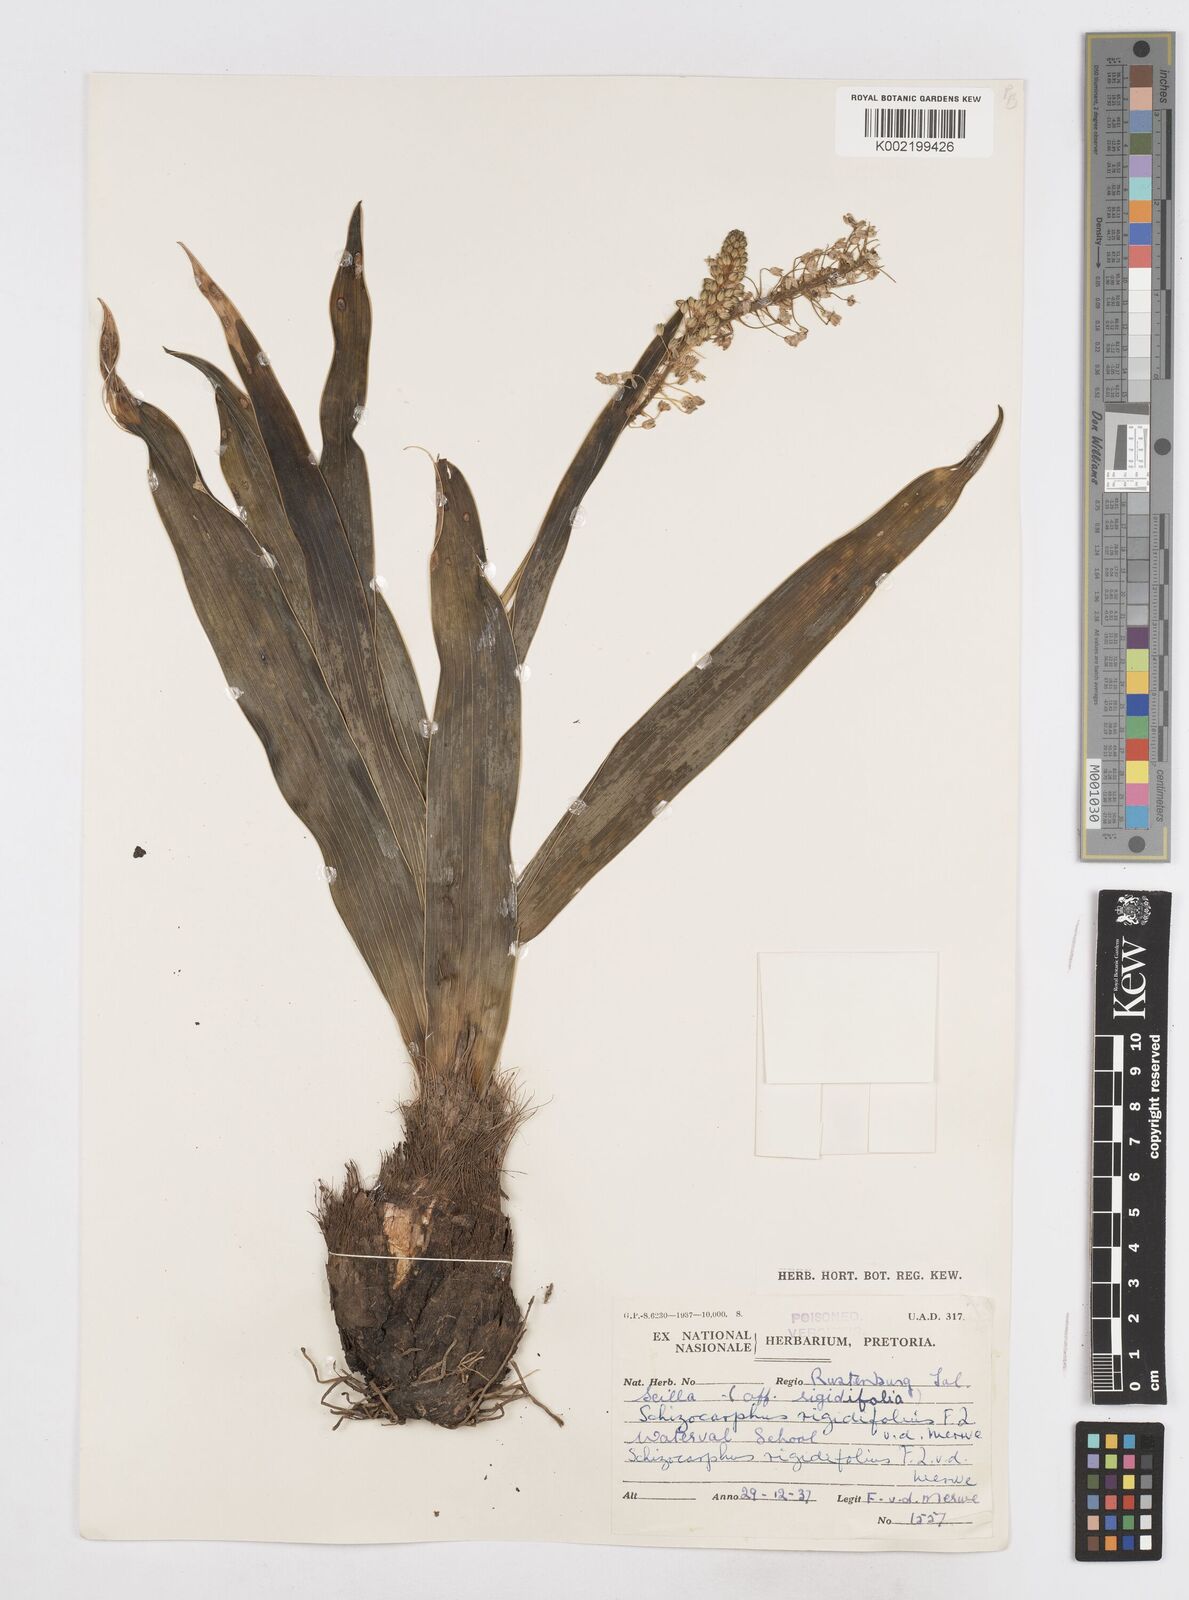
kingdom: Plantae
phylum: Tracheophyta
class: Liliopsida
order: Asparagales
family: Asparagaceae
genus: Schizocarphus
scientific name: Schizocarphus nervosus
